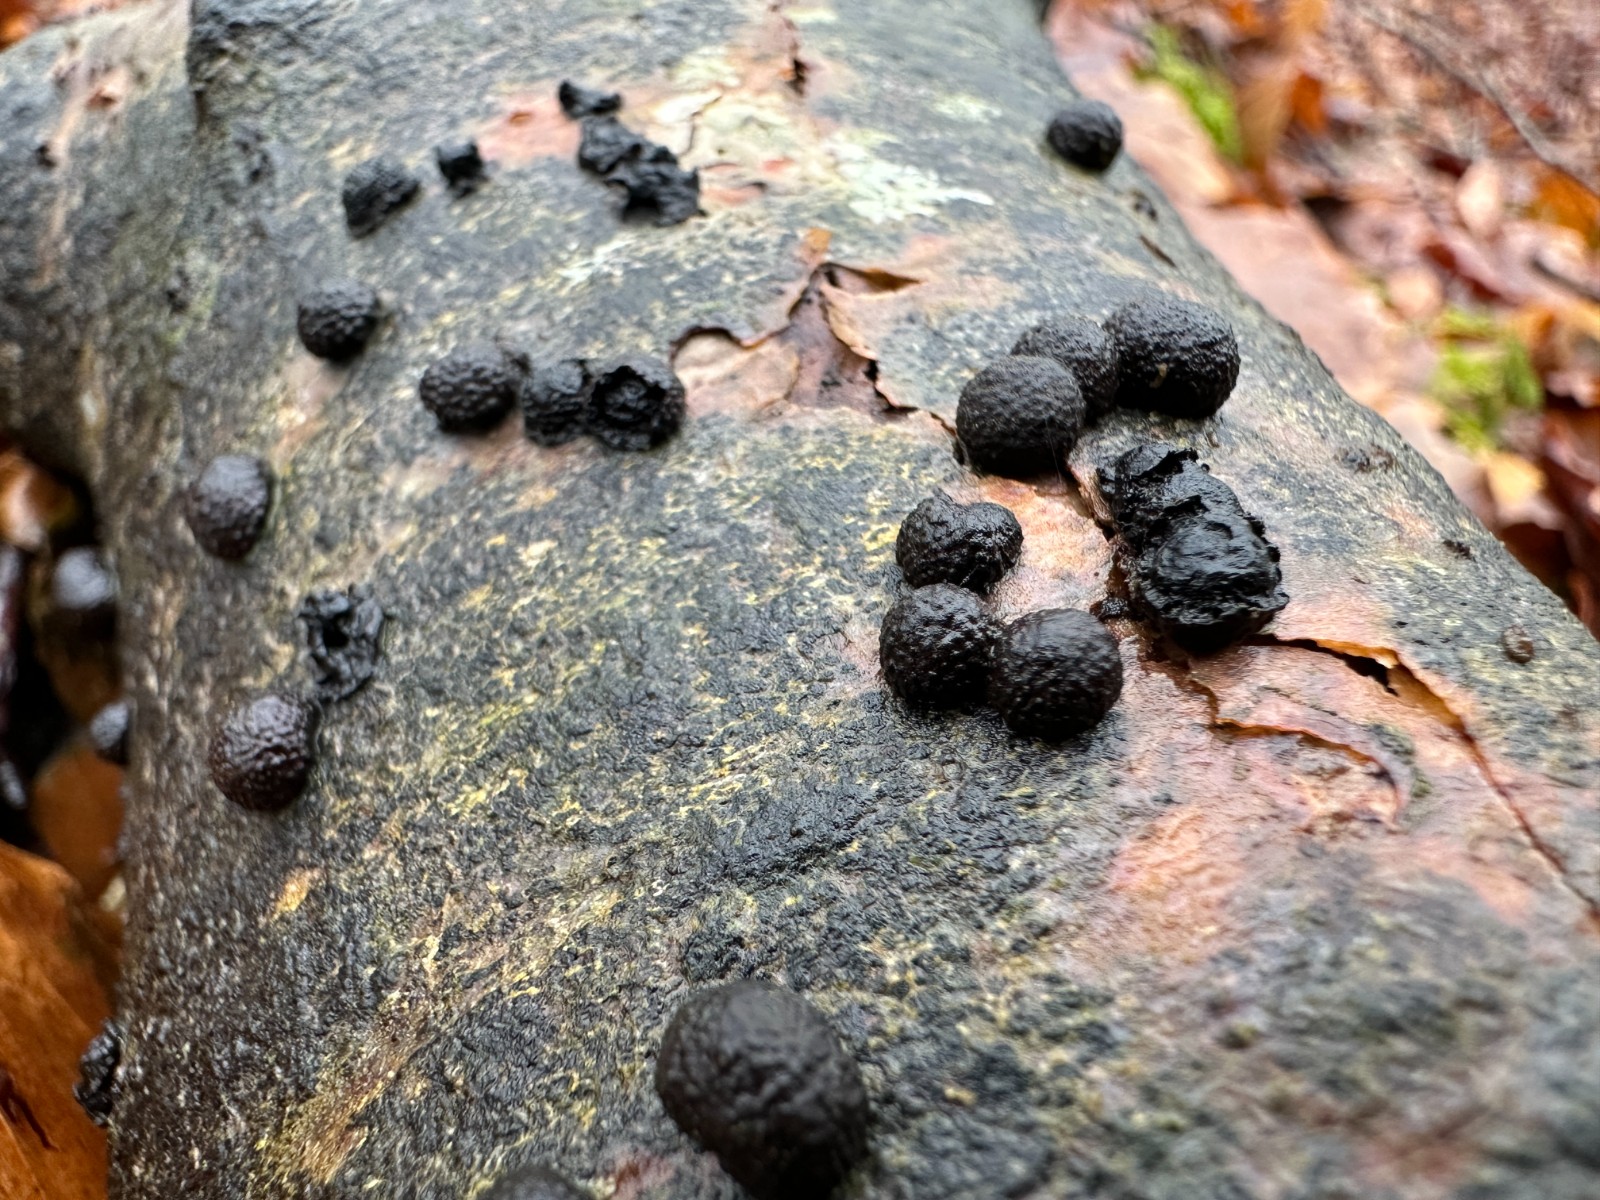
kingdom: Fungi
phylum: Ascomycota
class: Sordariomycetes
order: Xylariales
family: Hypoxylaceae
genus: Hypoxylon
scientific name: Hypoxylon fragiforme
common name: kuljordbær
